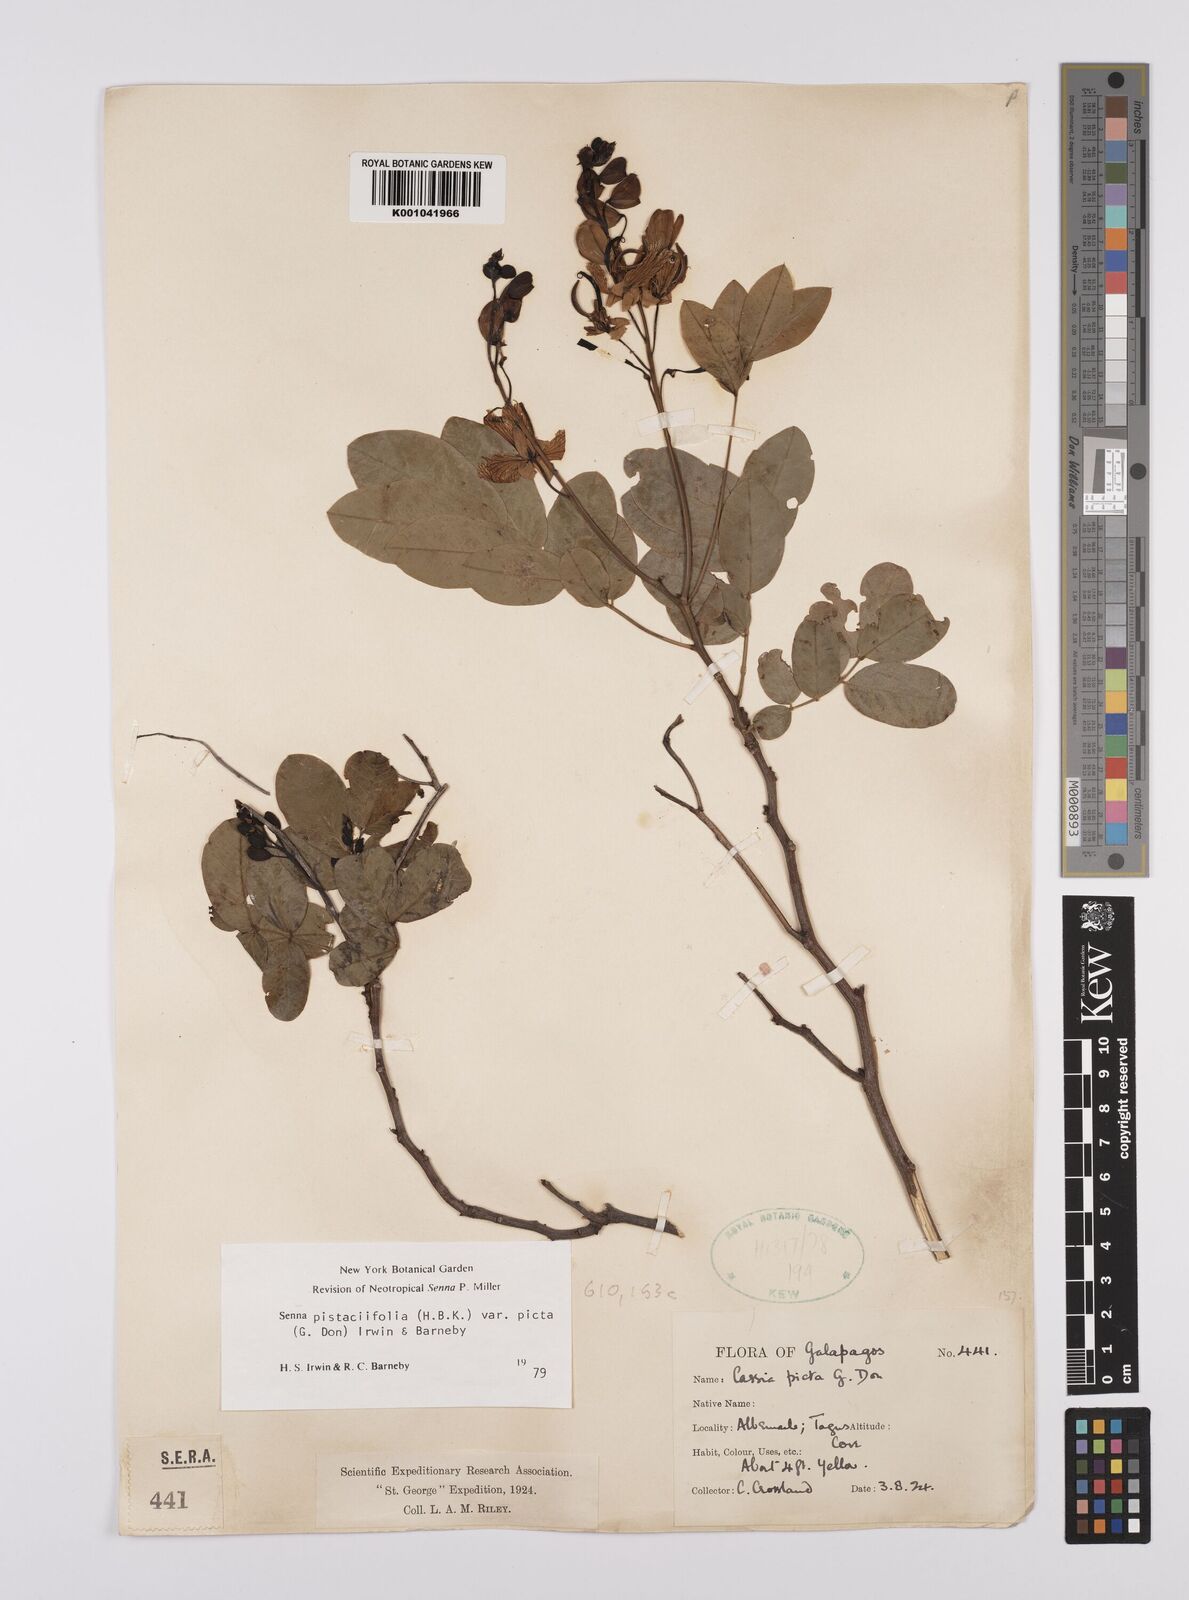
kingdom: Plantae
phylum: Tracheophyta
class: Magnoliopsida
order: Fabales
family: Fabaceae
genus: Senna
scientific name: Senna pistaciifolia
